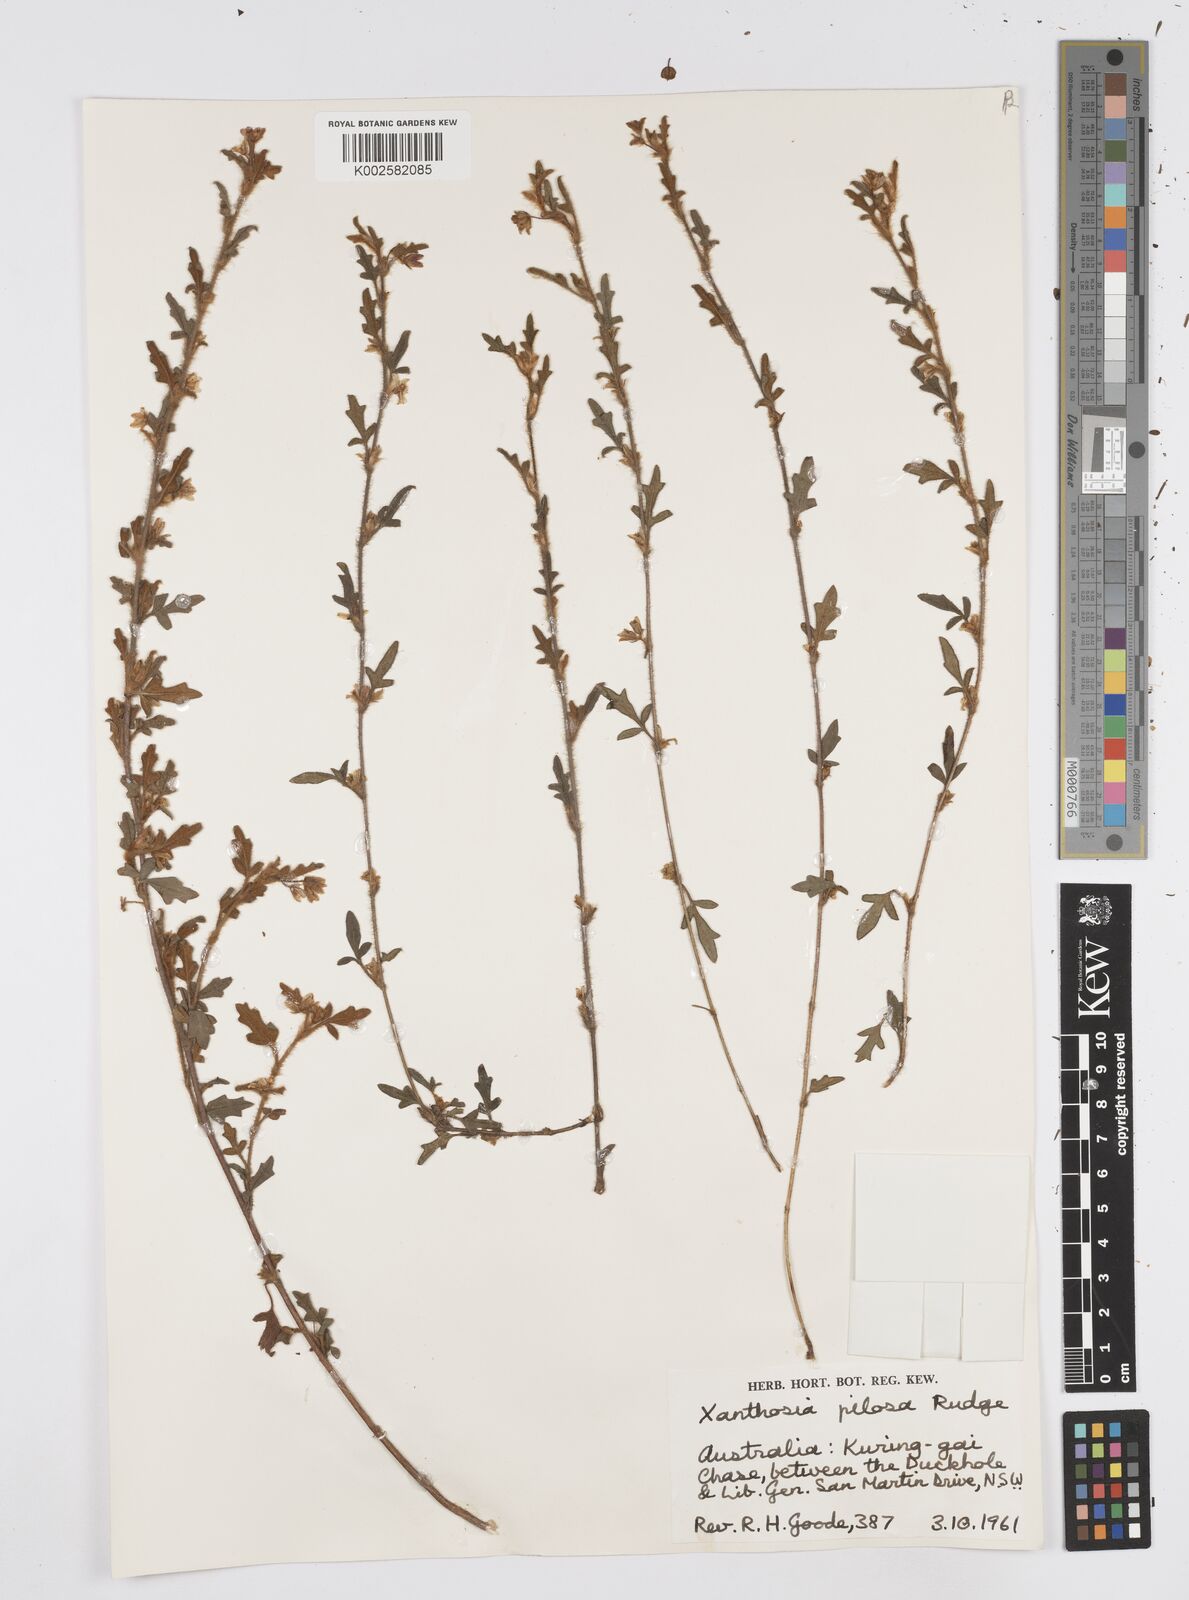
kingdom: Plantae
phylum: Tracheophyta
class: Magnoliopsida
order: Apiales
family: Apiaceae
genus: Xanthosia
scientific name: Xanthosia pilosa
